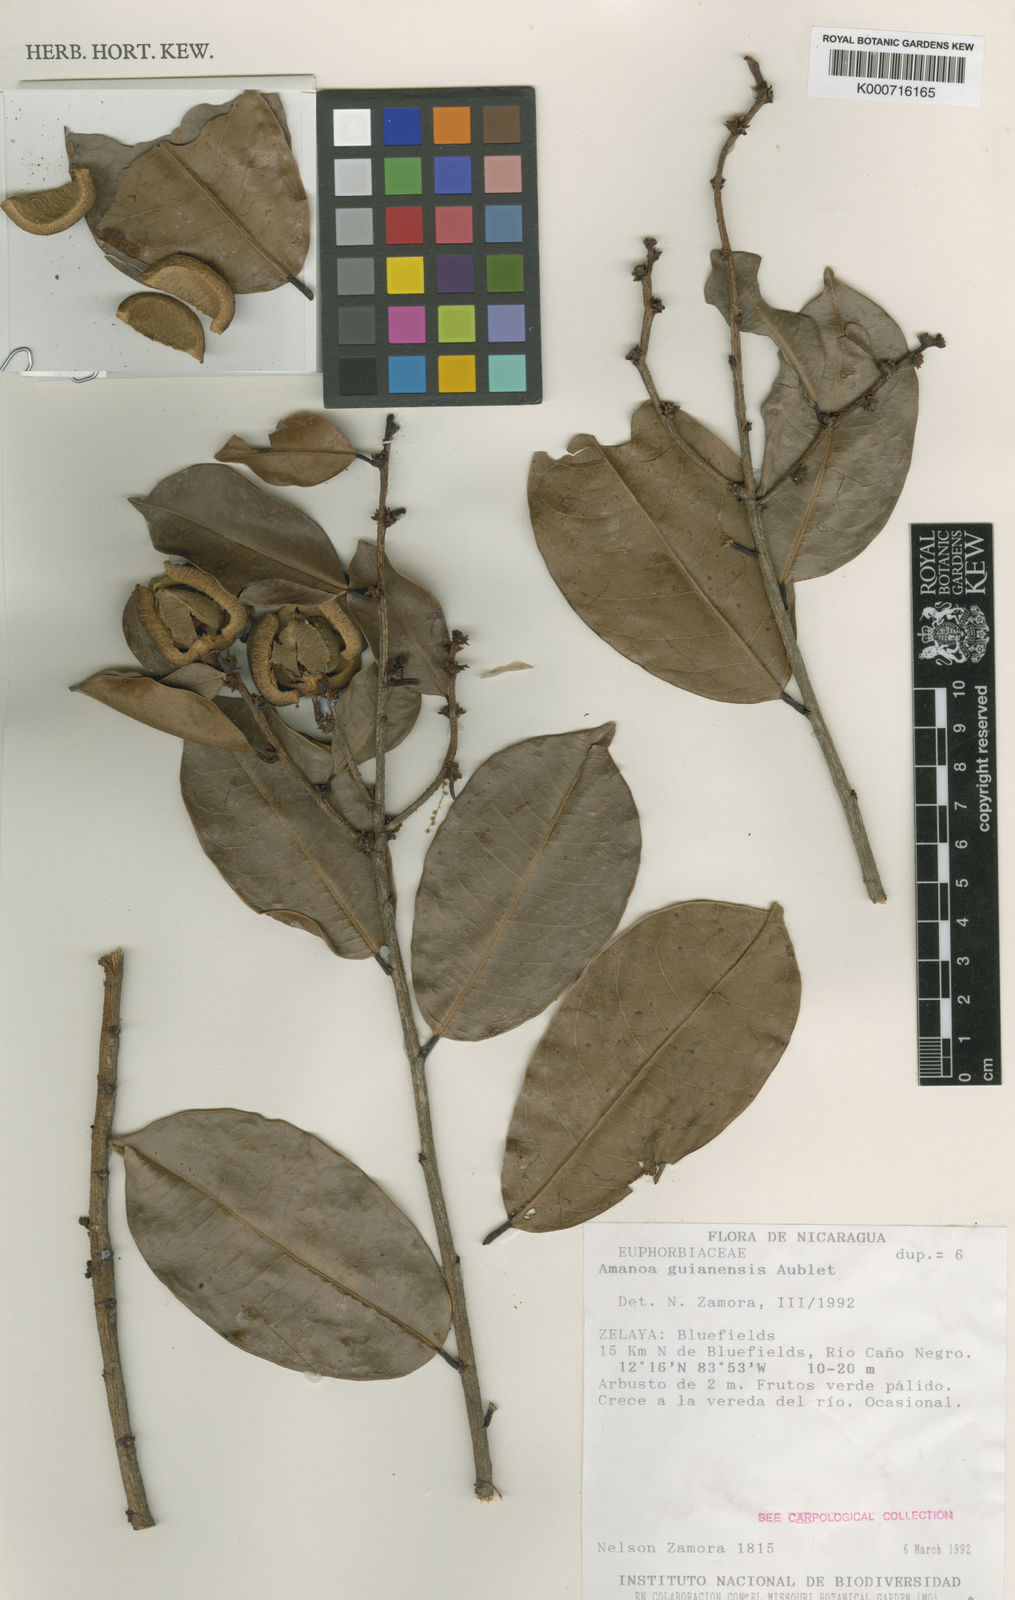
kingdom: Plantae
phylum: Tracheophyta
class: Magnoliopsida
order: Malpighiales
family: Phyllanthaceae
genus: Amanoa
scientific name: Amanoa guianensis
